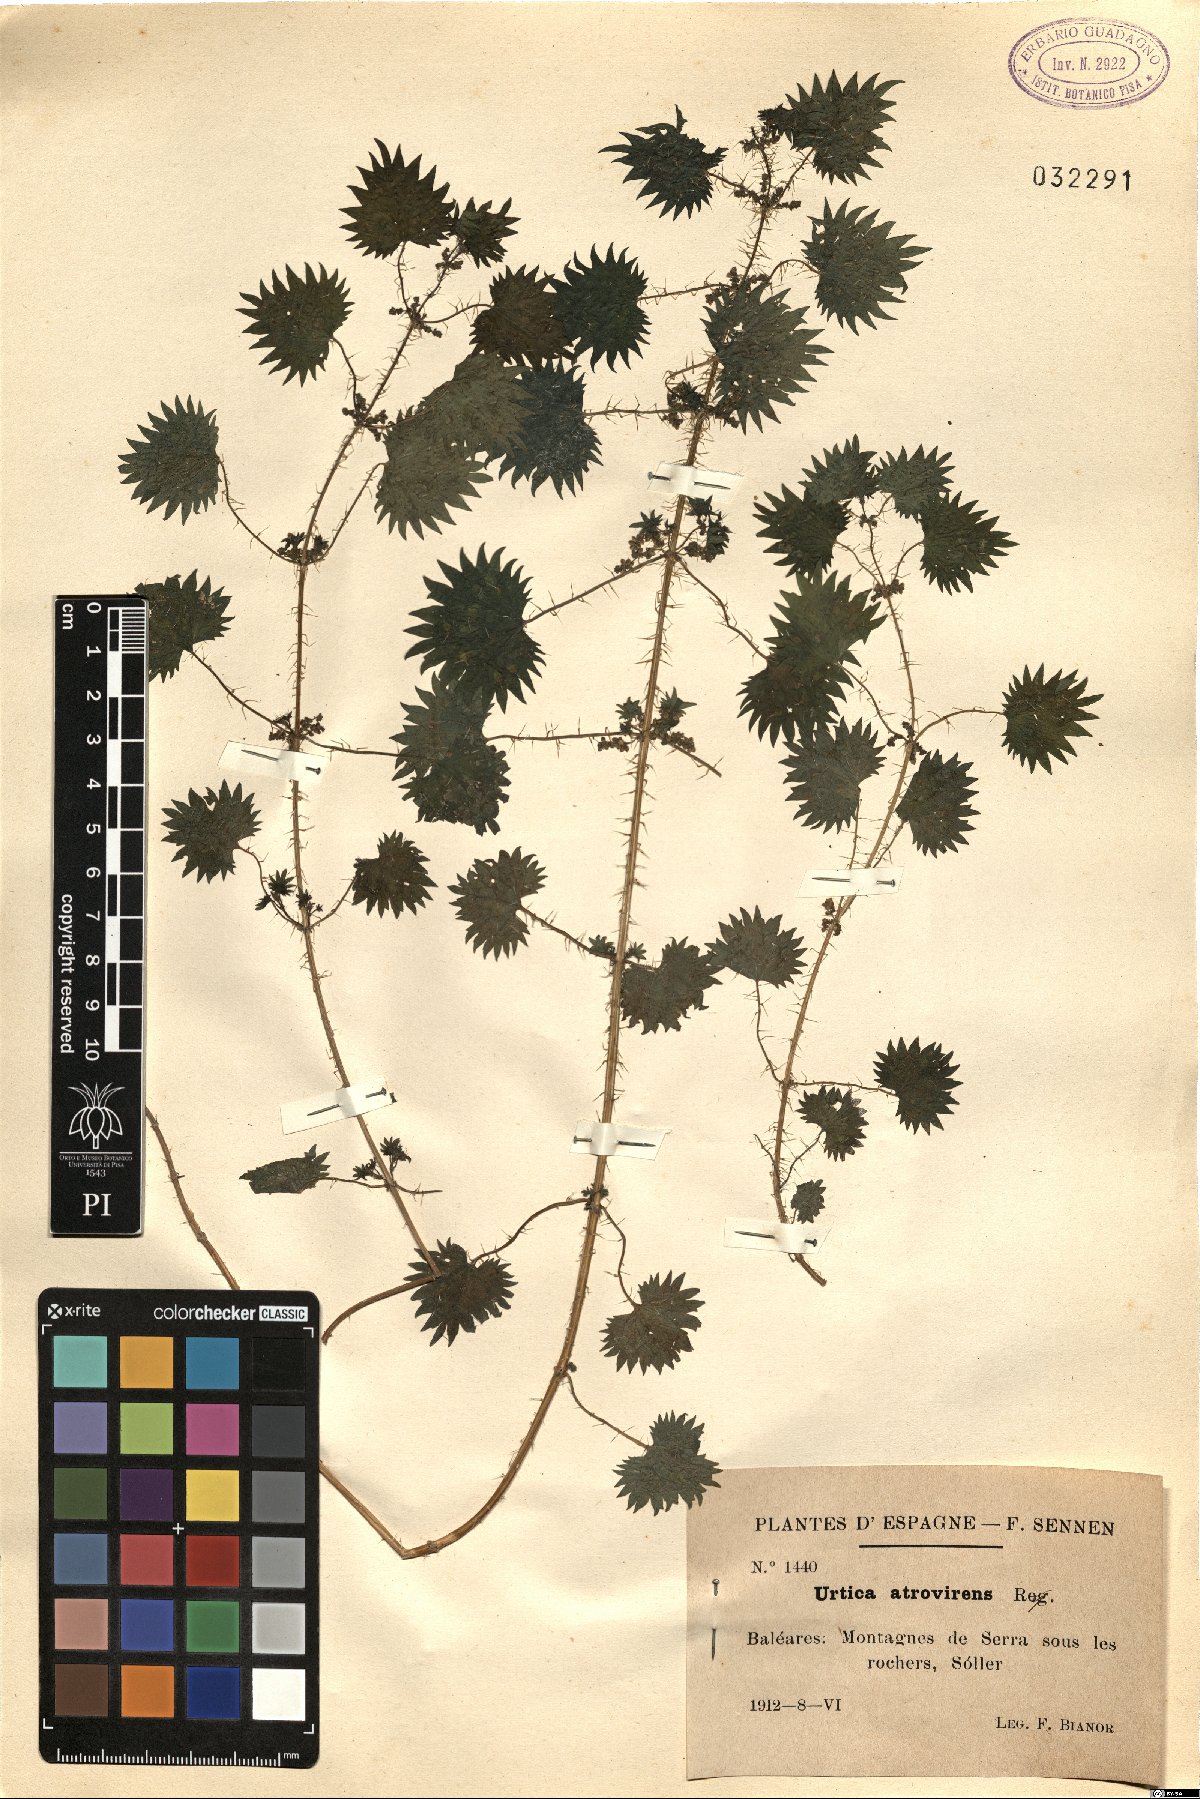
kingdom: Plantae
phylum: Tracheophyta
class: Magnoliopsida
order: Rosales
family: Urticaceae
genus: Urtica
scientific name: Urtica atrovirens
